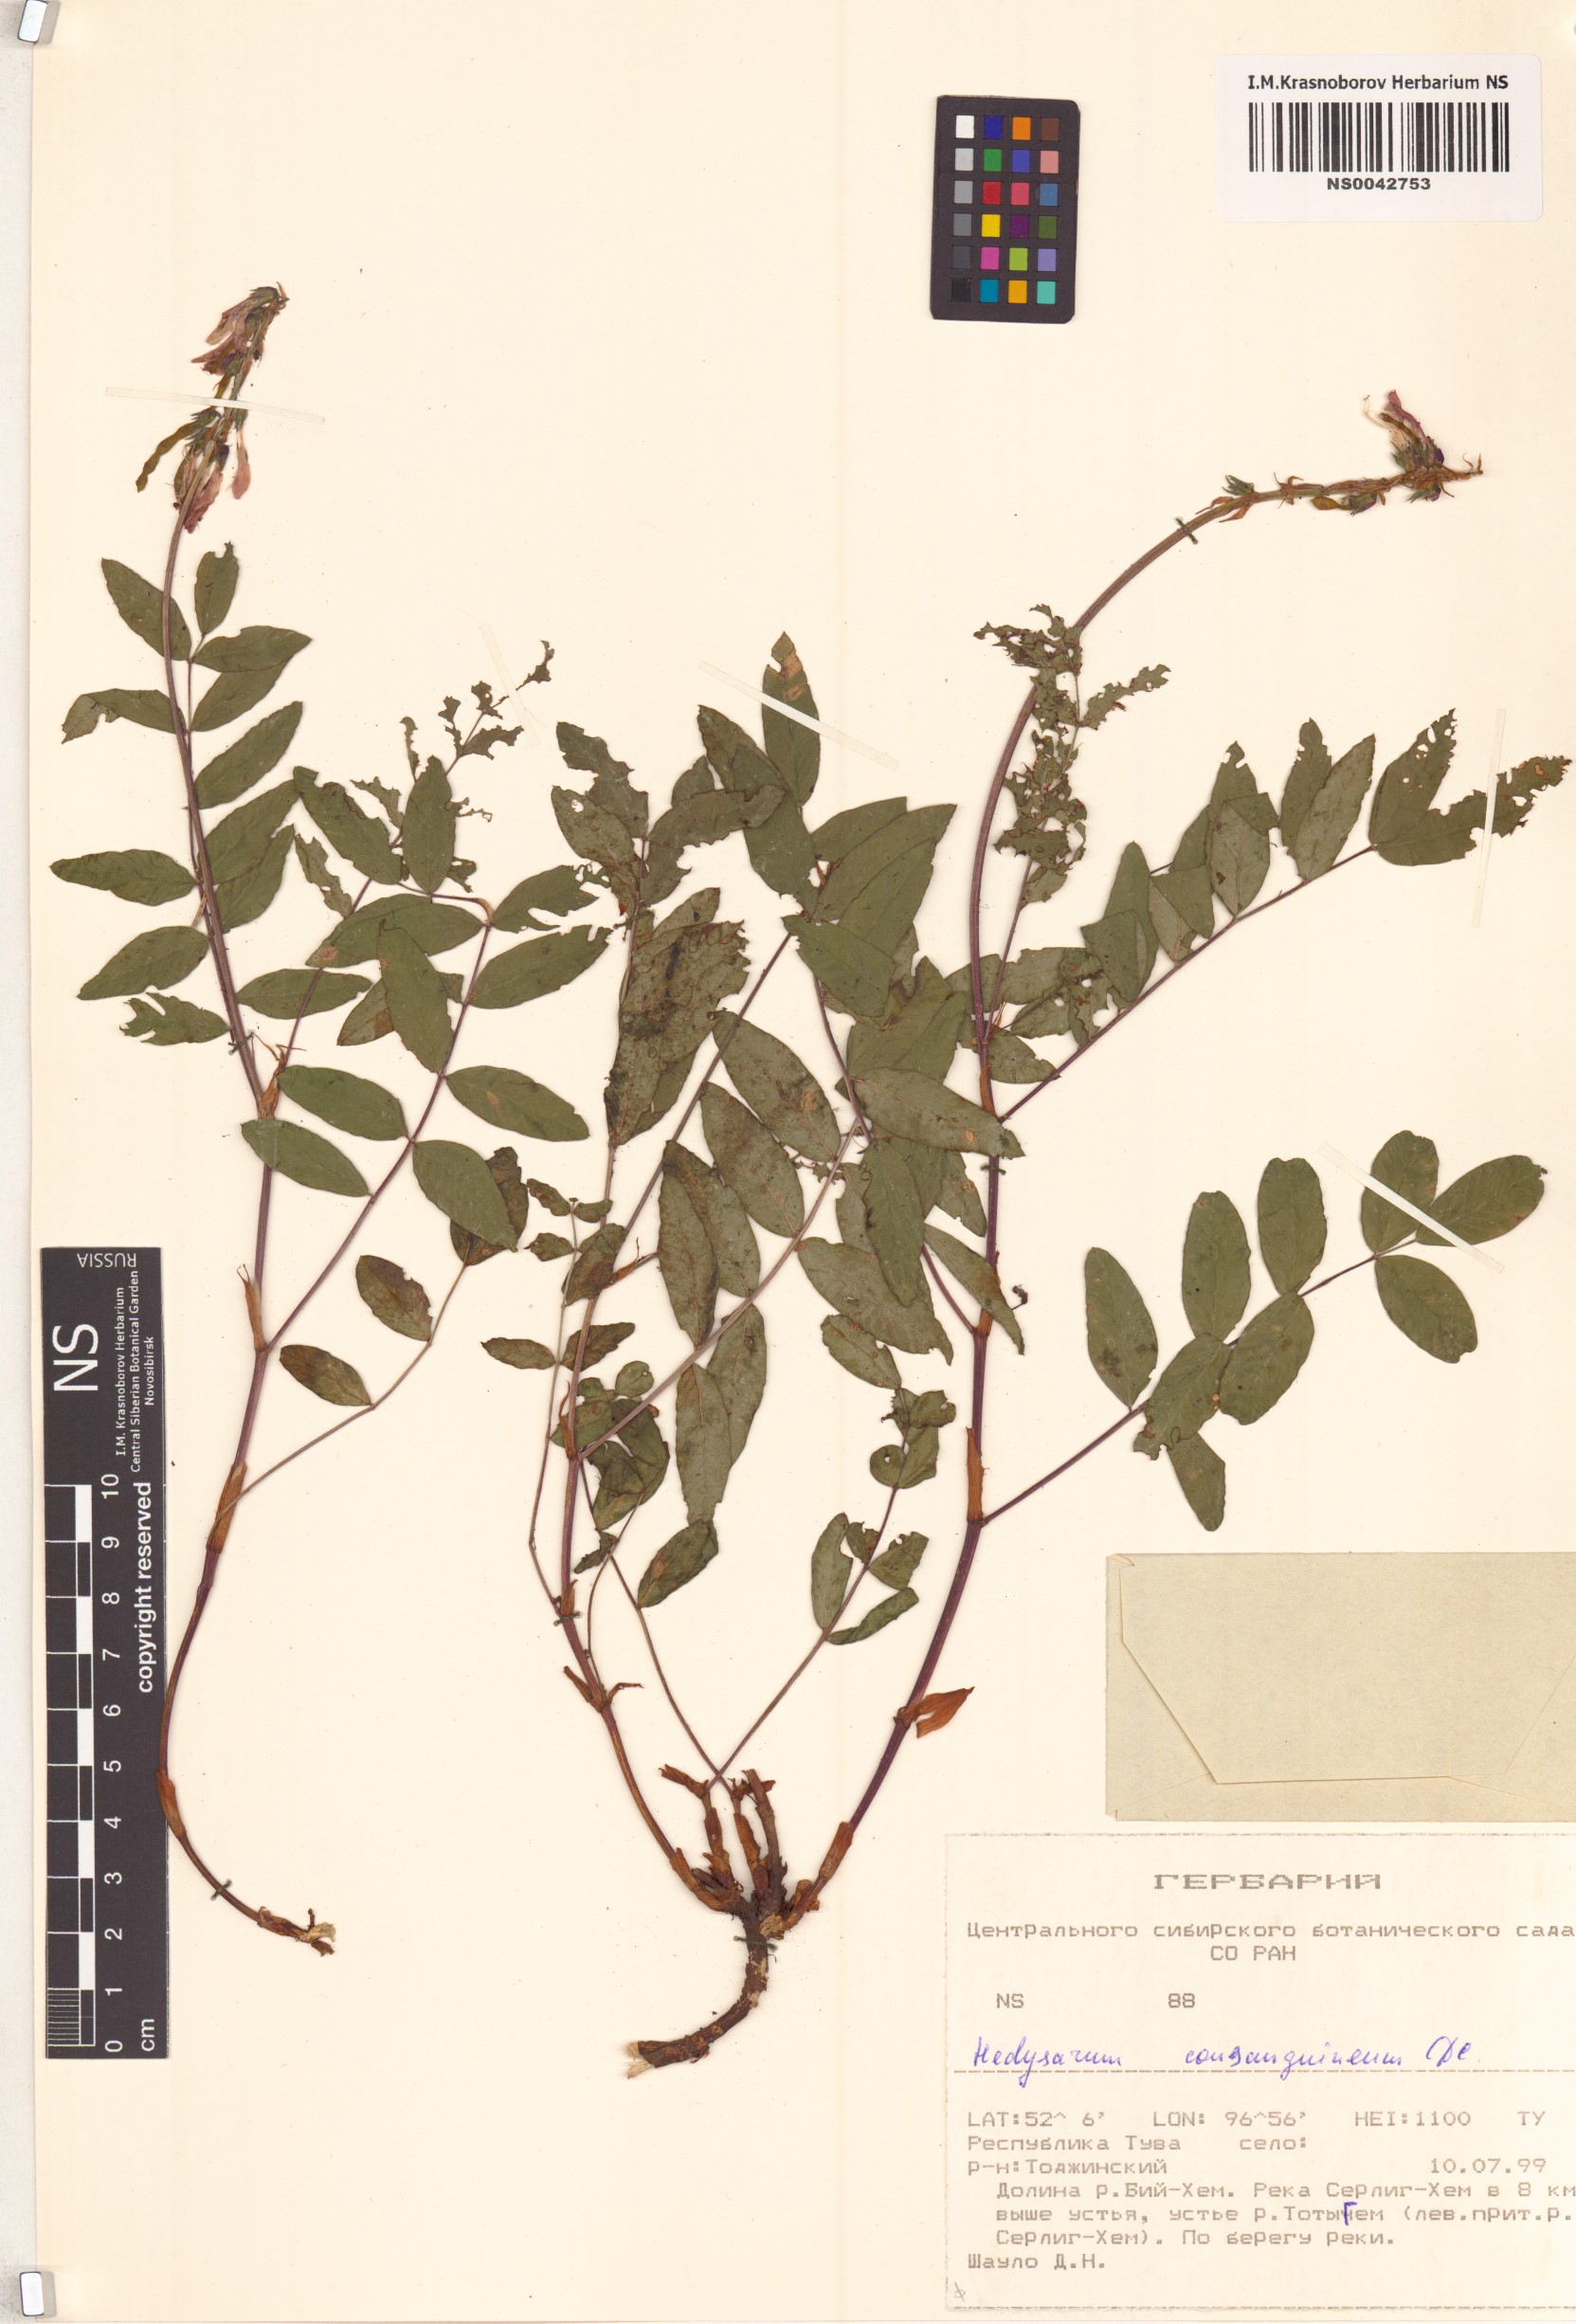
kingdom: Plantae
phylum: Tracheophyta
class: Magnoliopsida
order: Fabales
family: Fabaceae
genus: Hedysarum
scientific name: Hedysarum consanguineum
